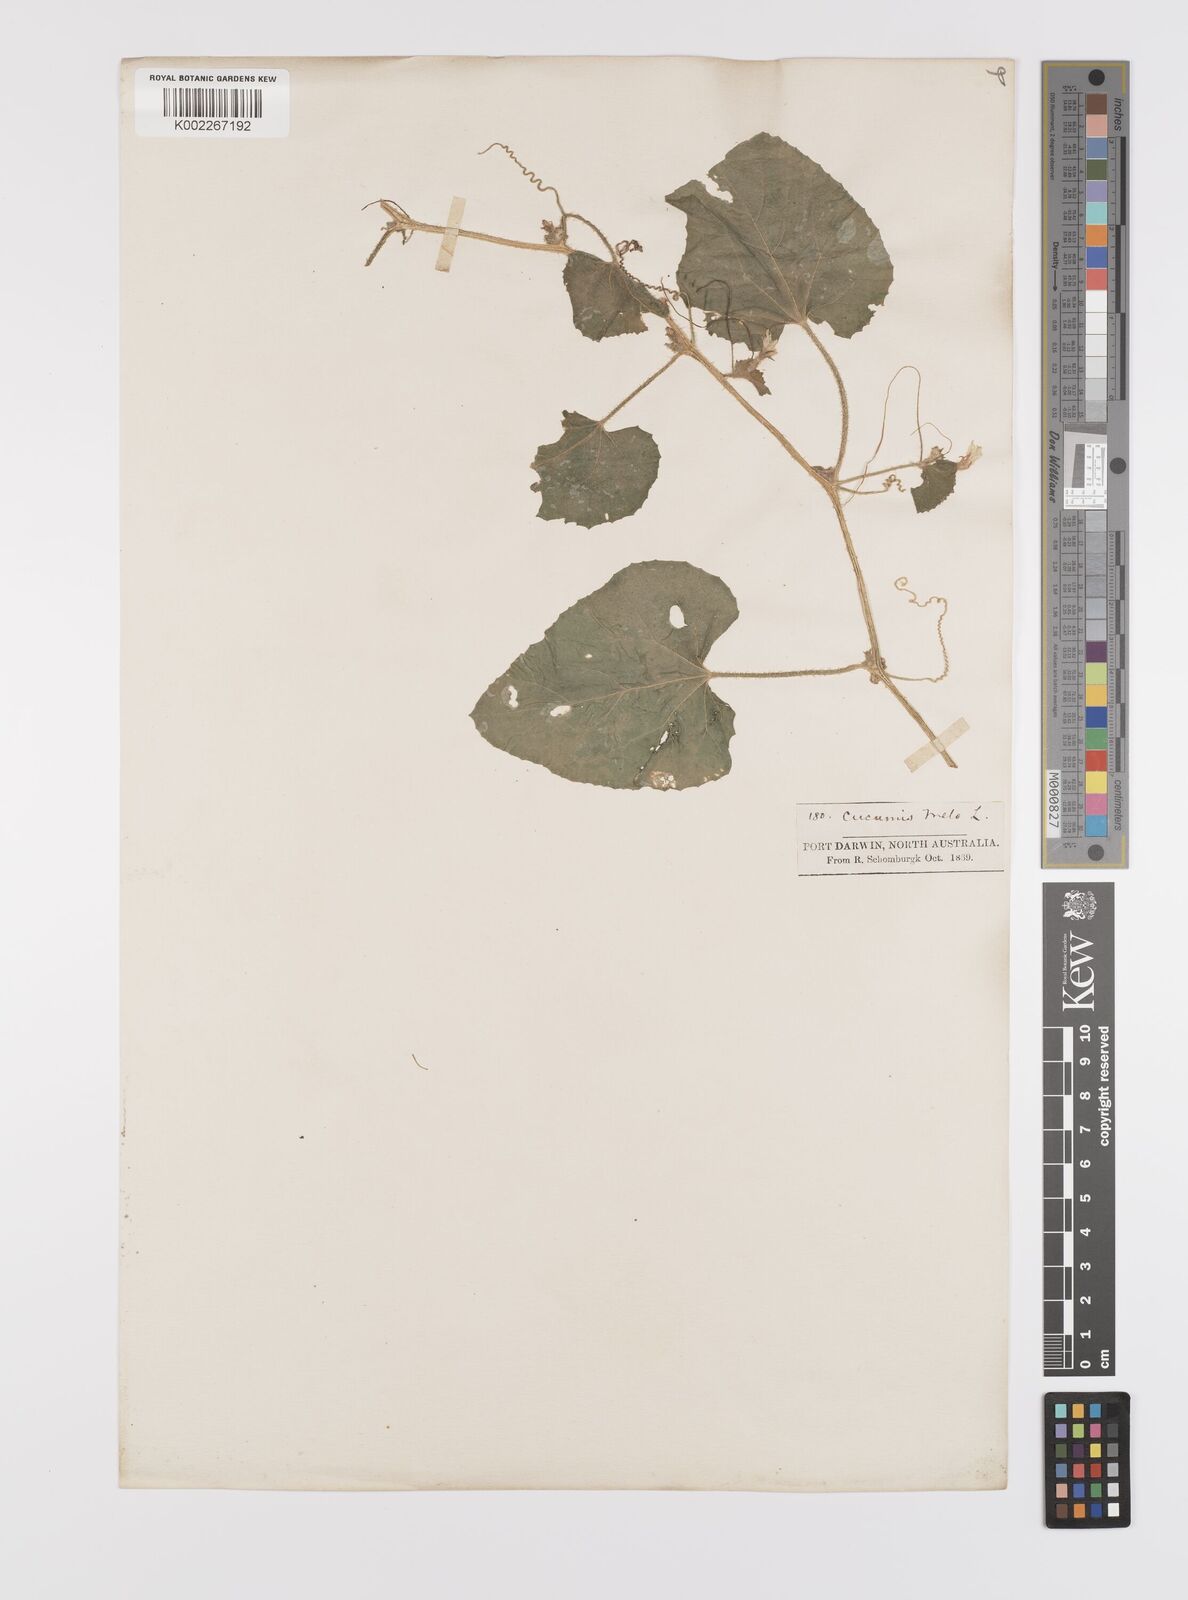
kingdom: Plantae
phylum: Tracheophyta
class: Magnoliopsida
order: Cucurbitales
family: Cucurbitaceae
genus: Cucumis
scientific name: Cucumis melo
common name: Melon
